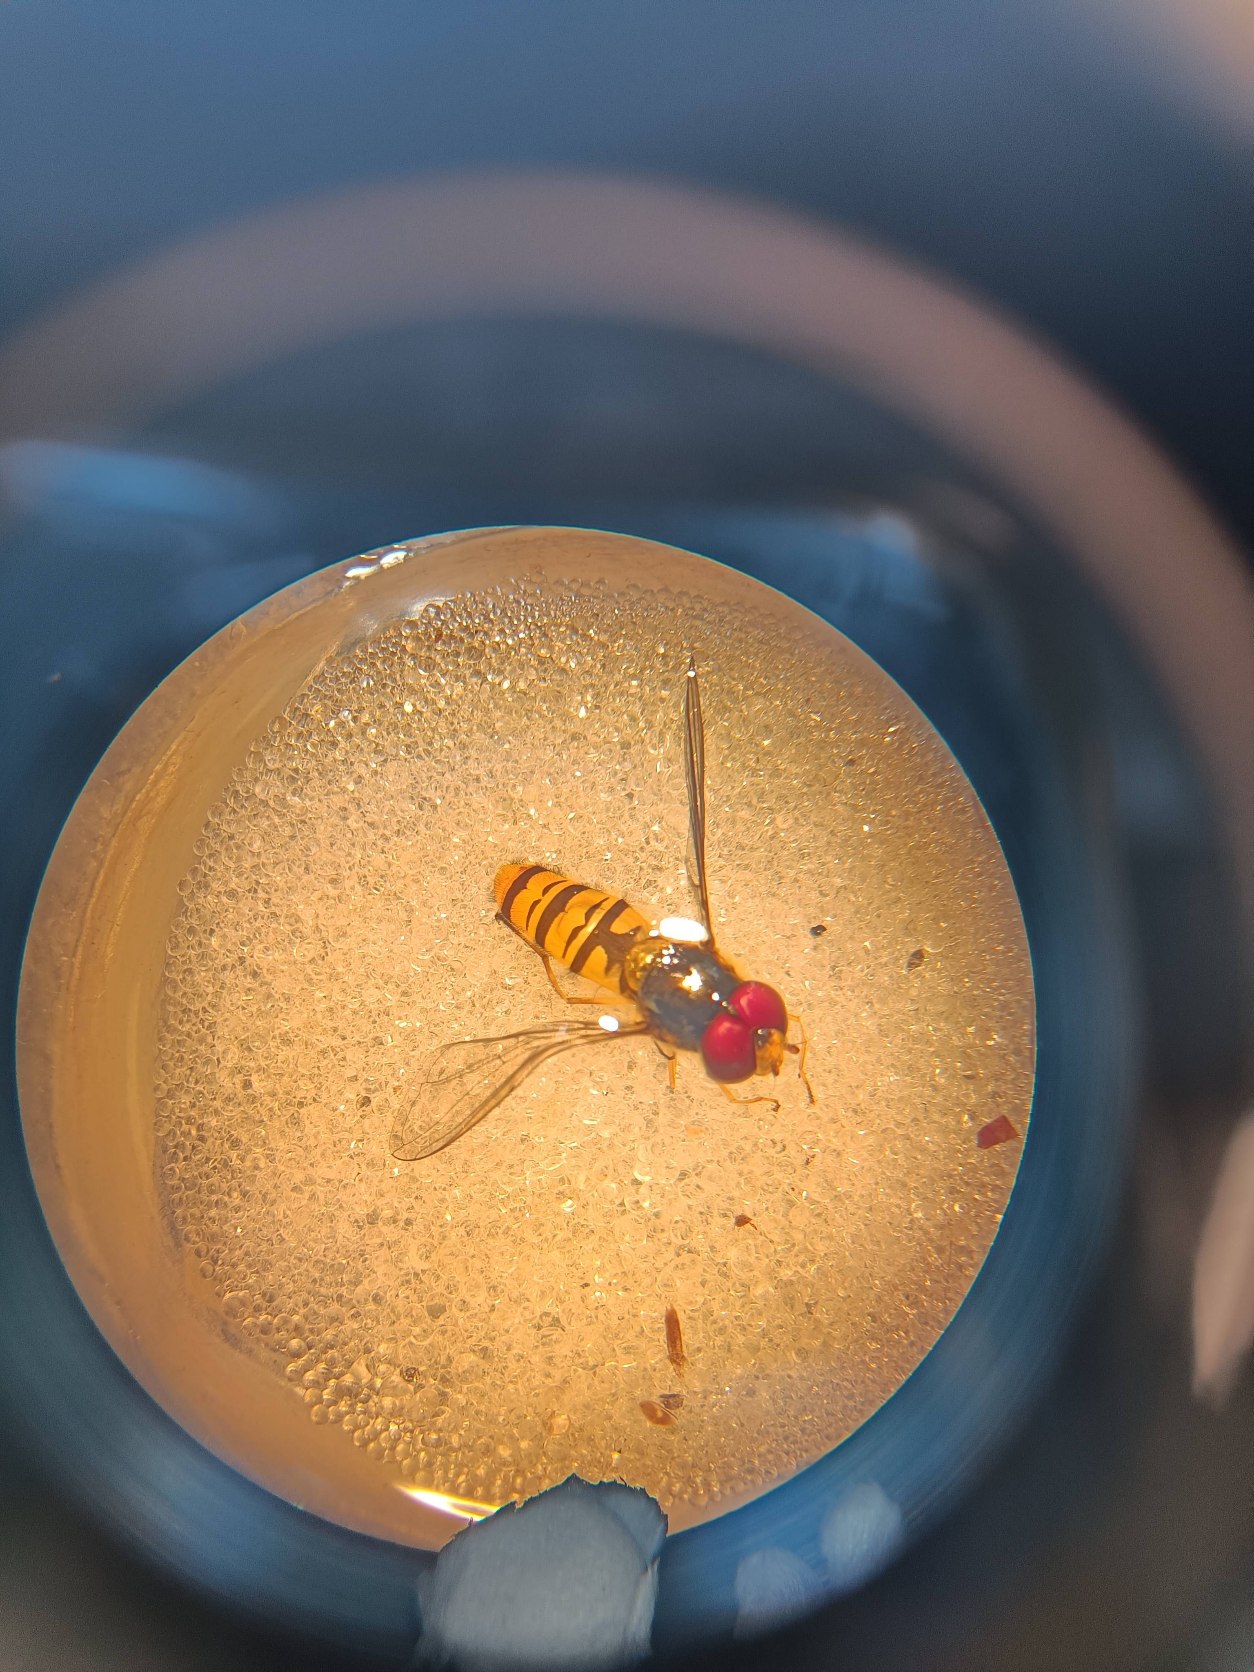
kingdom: Animalia
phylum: Arthropoda
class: Insecta
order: Diptera
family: Syrphidae
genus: Episyrphus
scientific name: Episyrphus balteatus
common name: Dobbeltbåndet svirreflue
